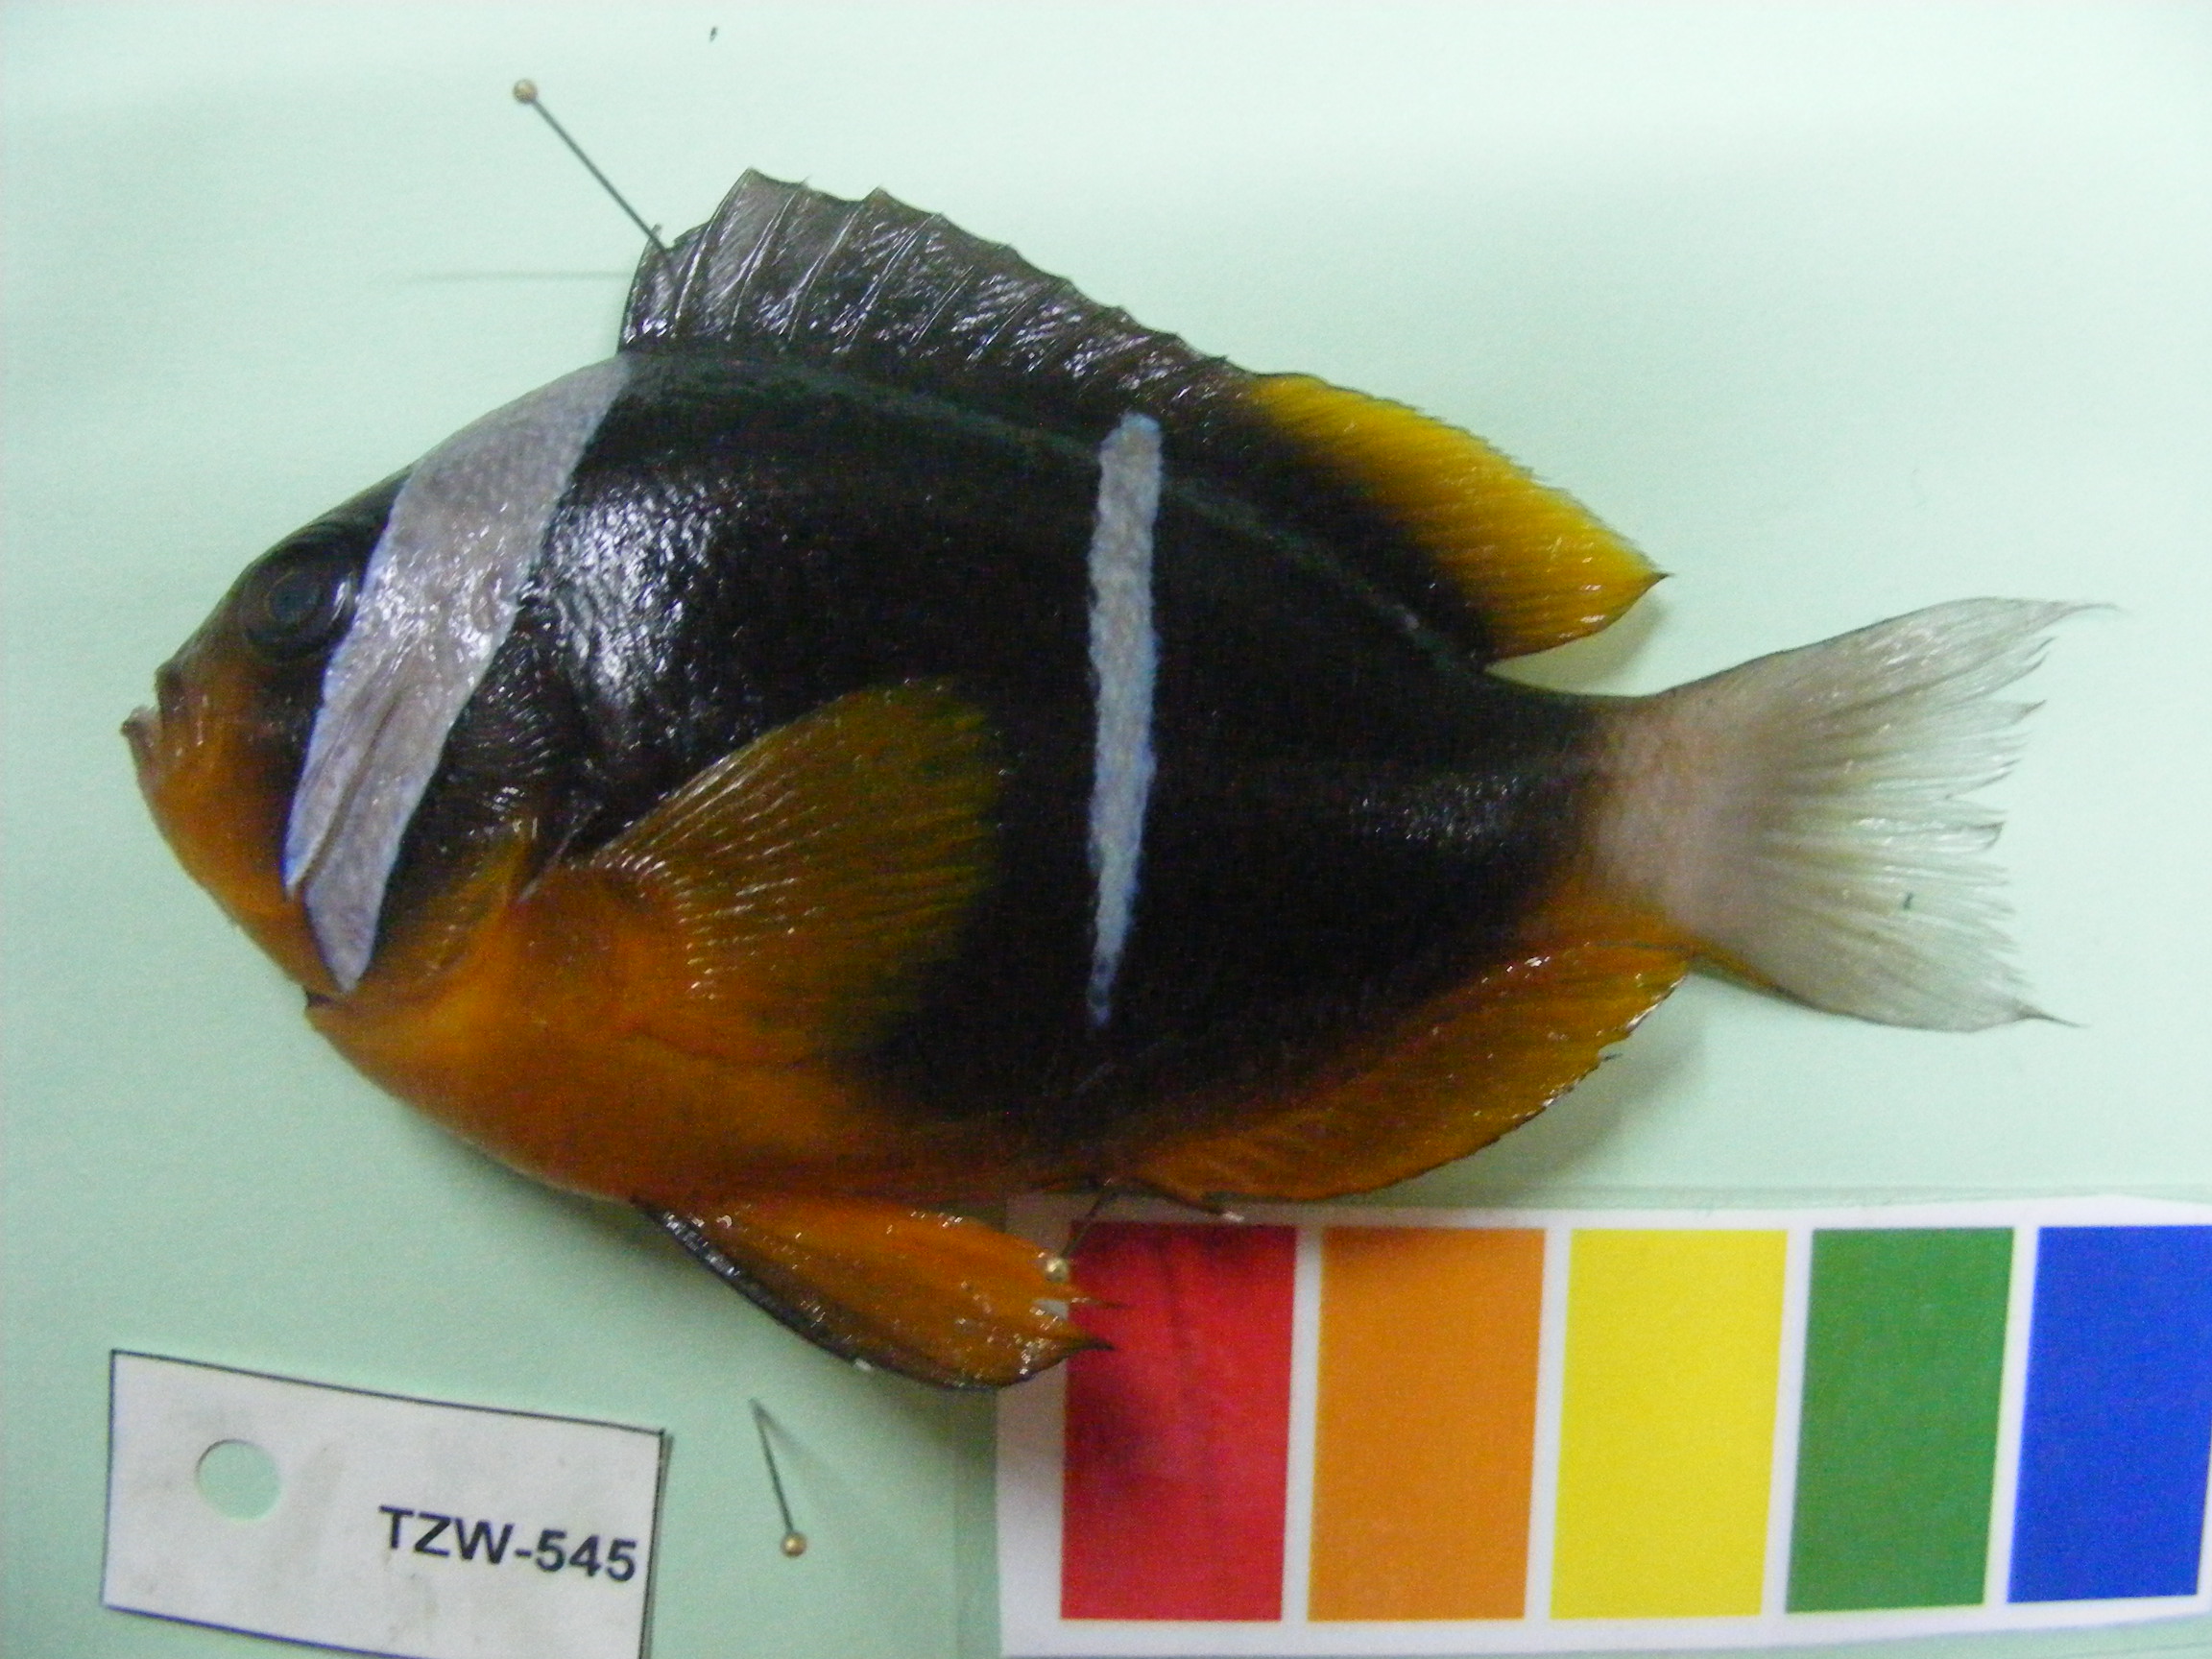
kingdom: Animalia
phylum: Chordata
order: Perciformes
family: Pomacentridae
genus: Amphiprion
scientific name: Amphiprion allardi
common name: Allard's anemonefish
